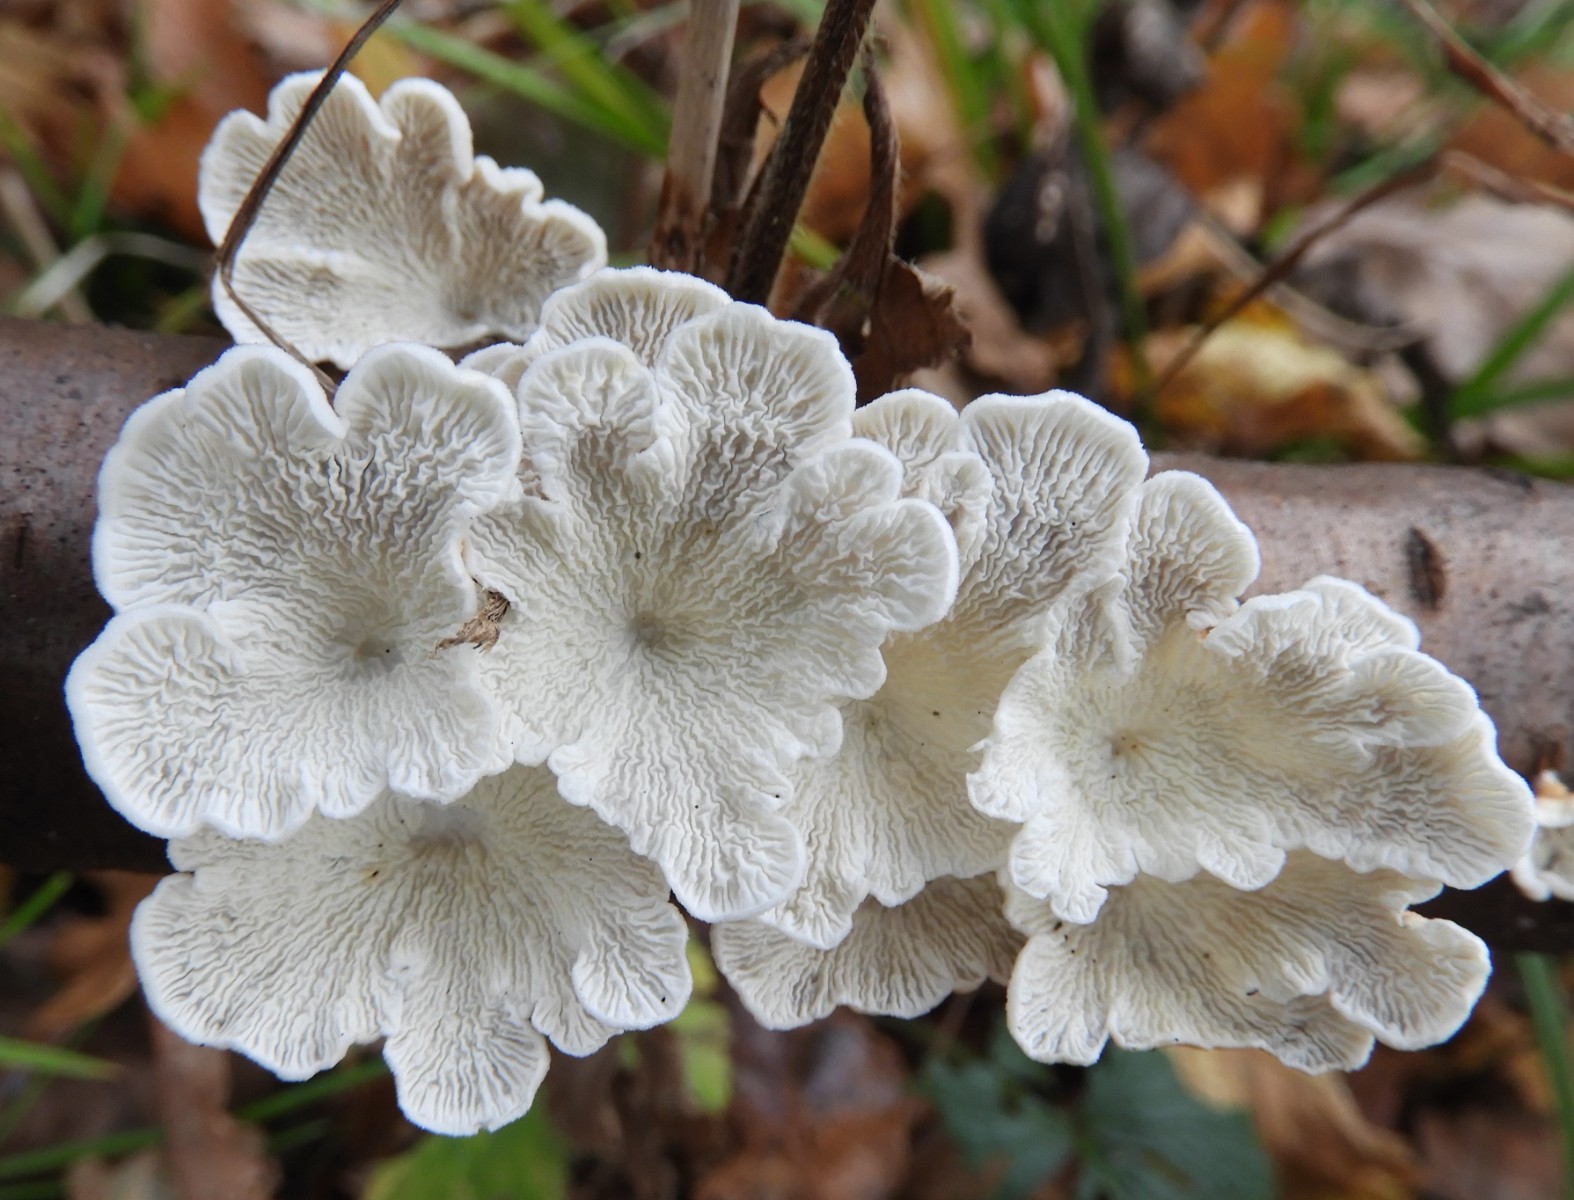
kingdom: Fungi
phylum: Basidiomycota
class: Agaricomycetes
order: Amylocorticiales
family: Amylocorticiaceae
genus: Plicaturopsis
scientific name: Plicaturopsis crispa
